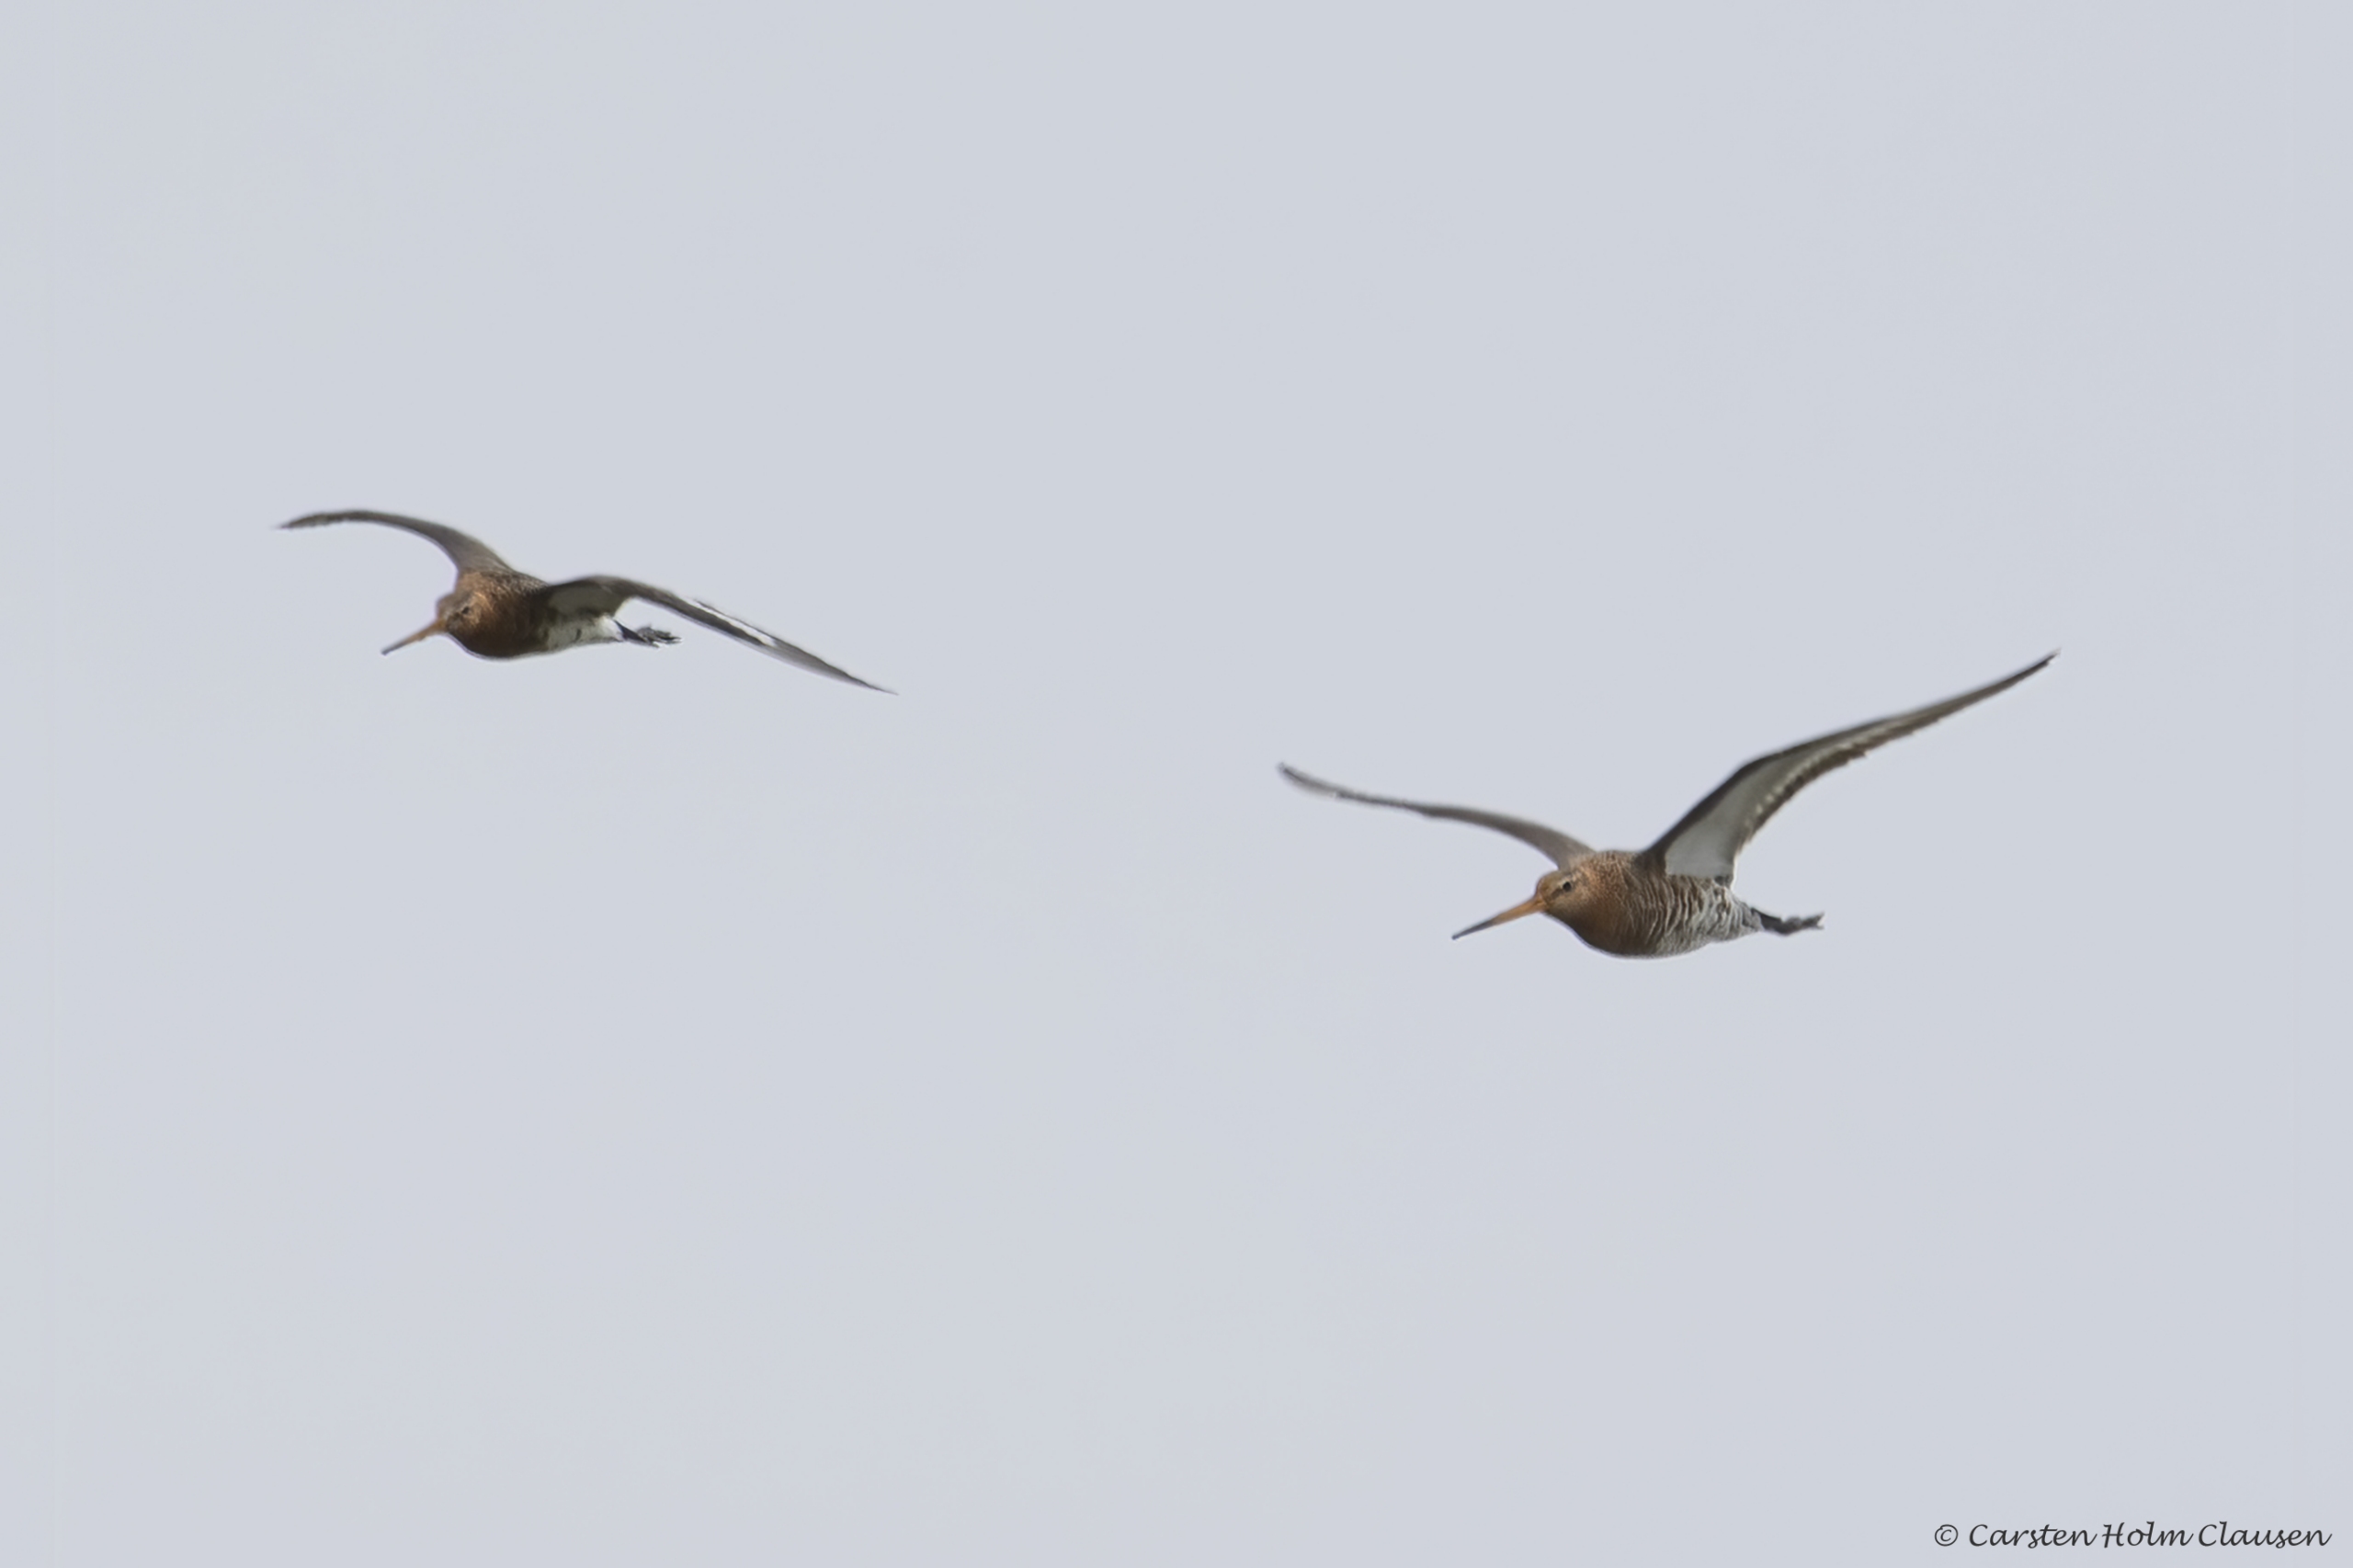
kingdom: Animalia
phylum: Chordata
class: Aves
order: Charadriiformes
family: Scolopacidae
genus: Limosa
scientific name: Limosa limosa
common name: Stor kobbersneppe
